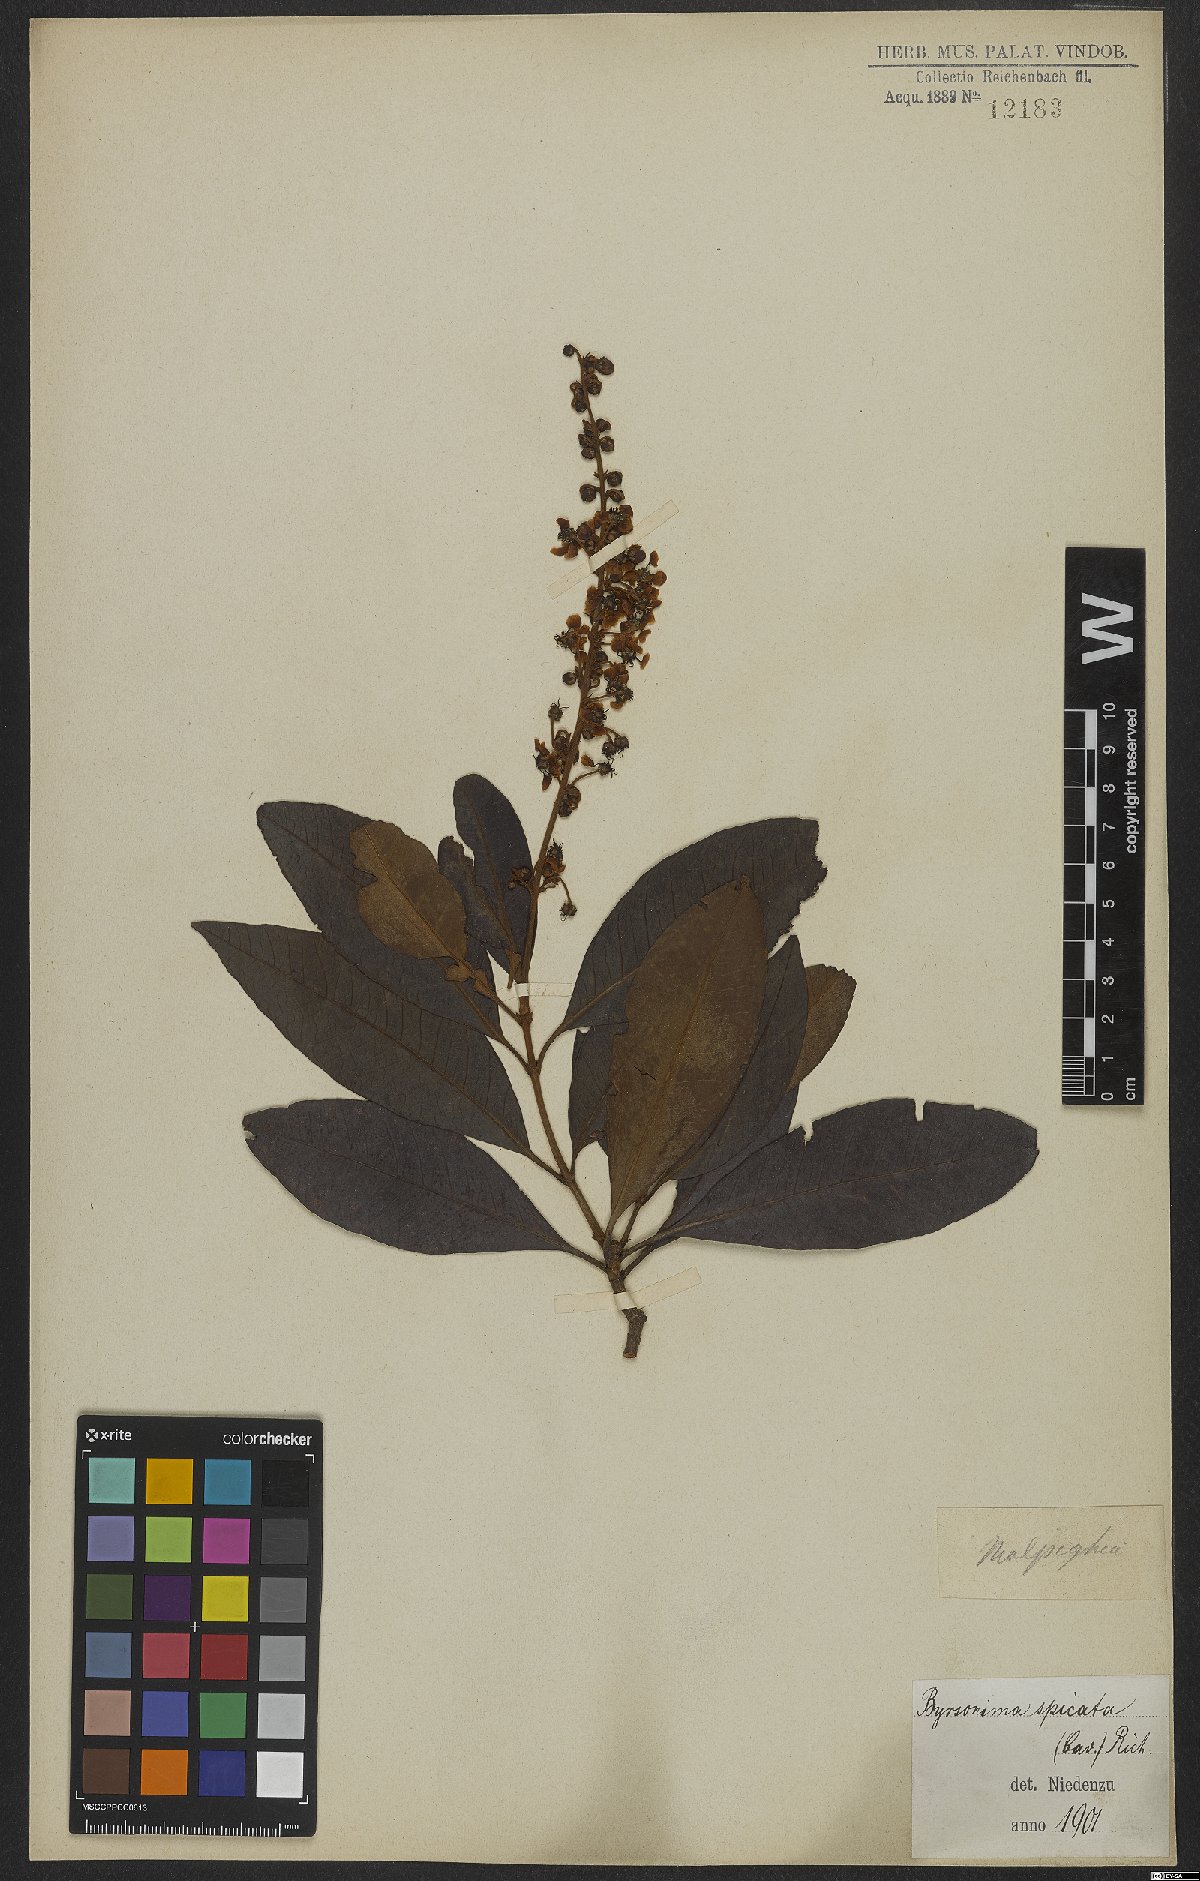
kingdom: Plantae
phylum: Tracheophyta
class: Magnoliopsida
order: Malpighiales
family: Malpighiaceae
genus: Byrsonima
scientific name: Byrsonima crassifolia
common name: Golden spoon
